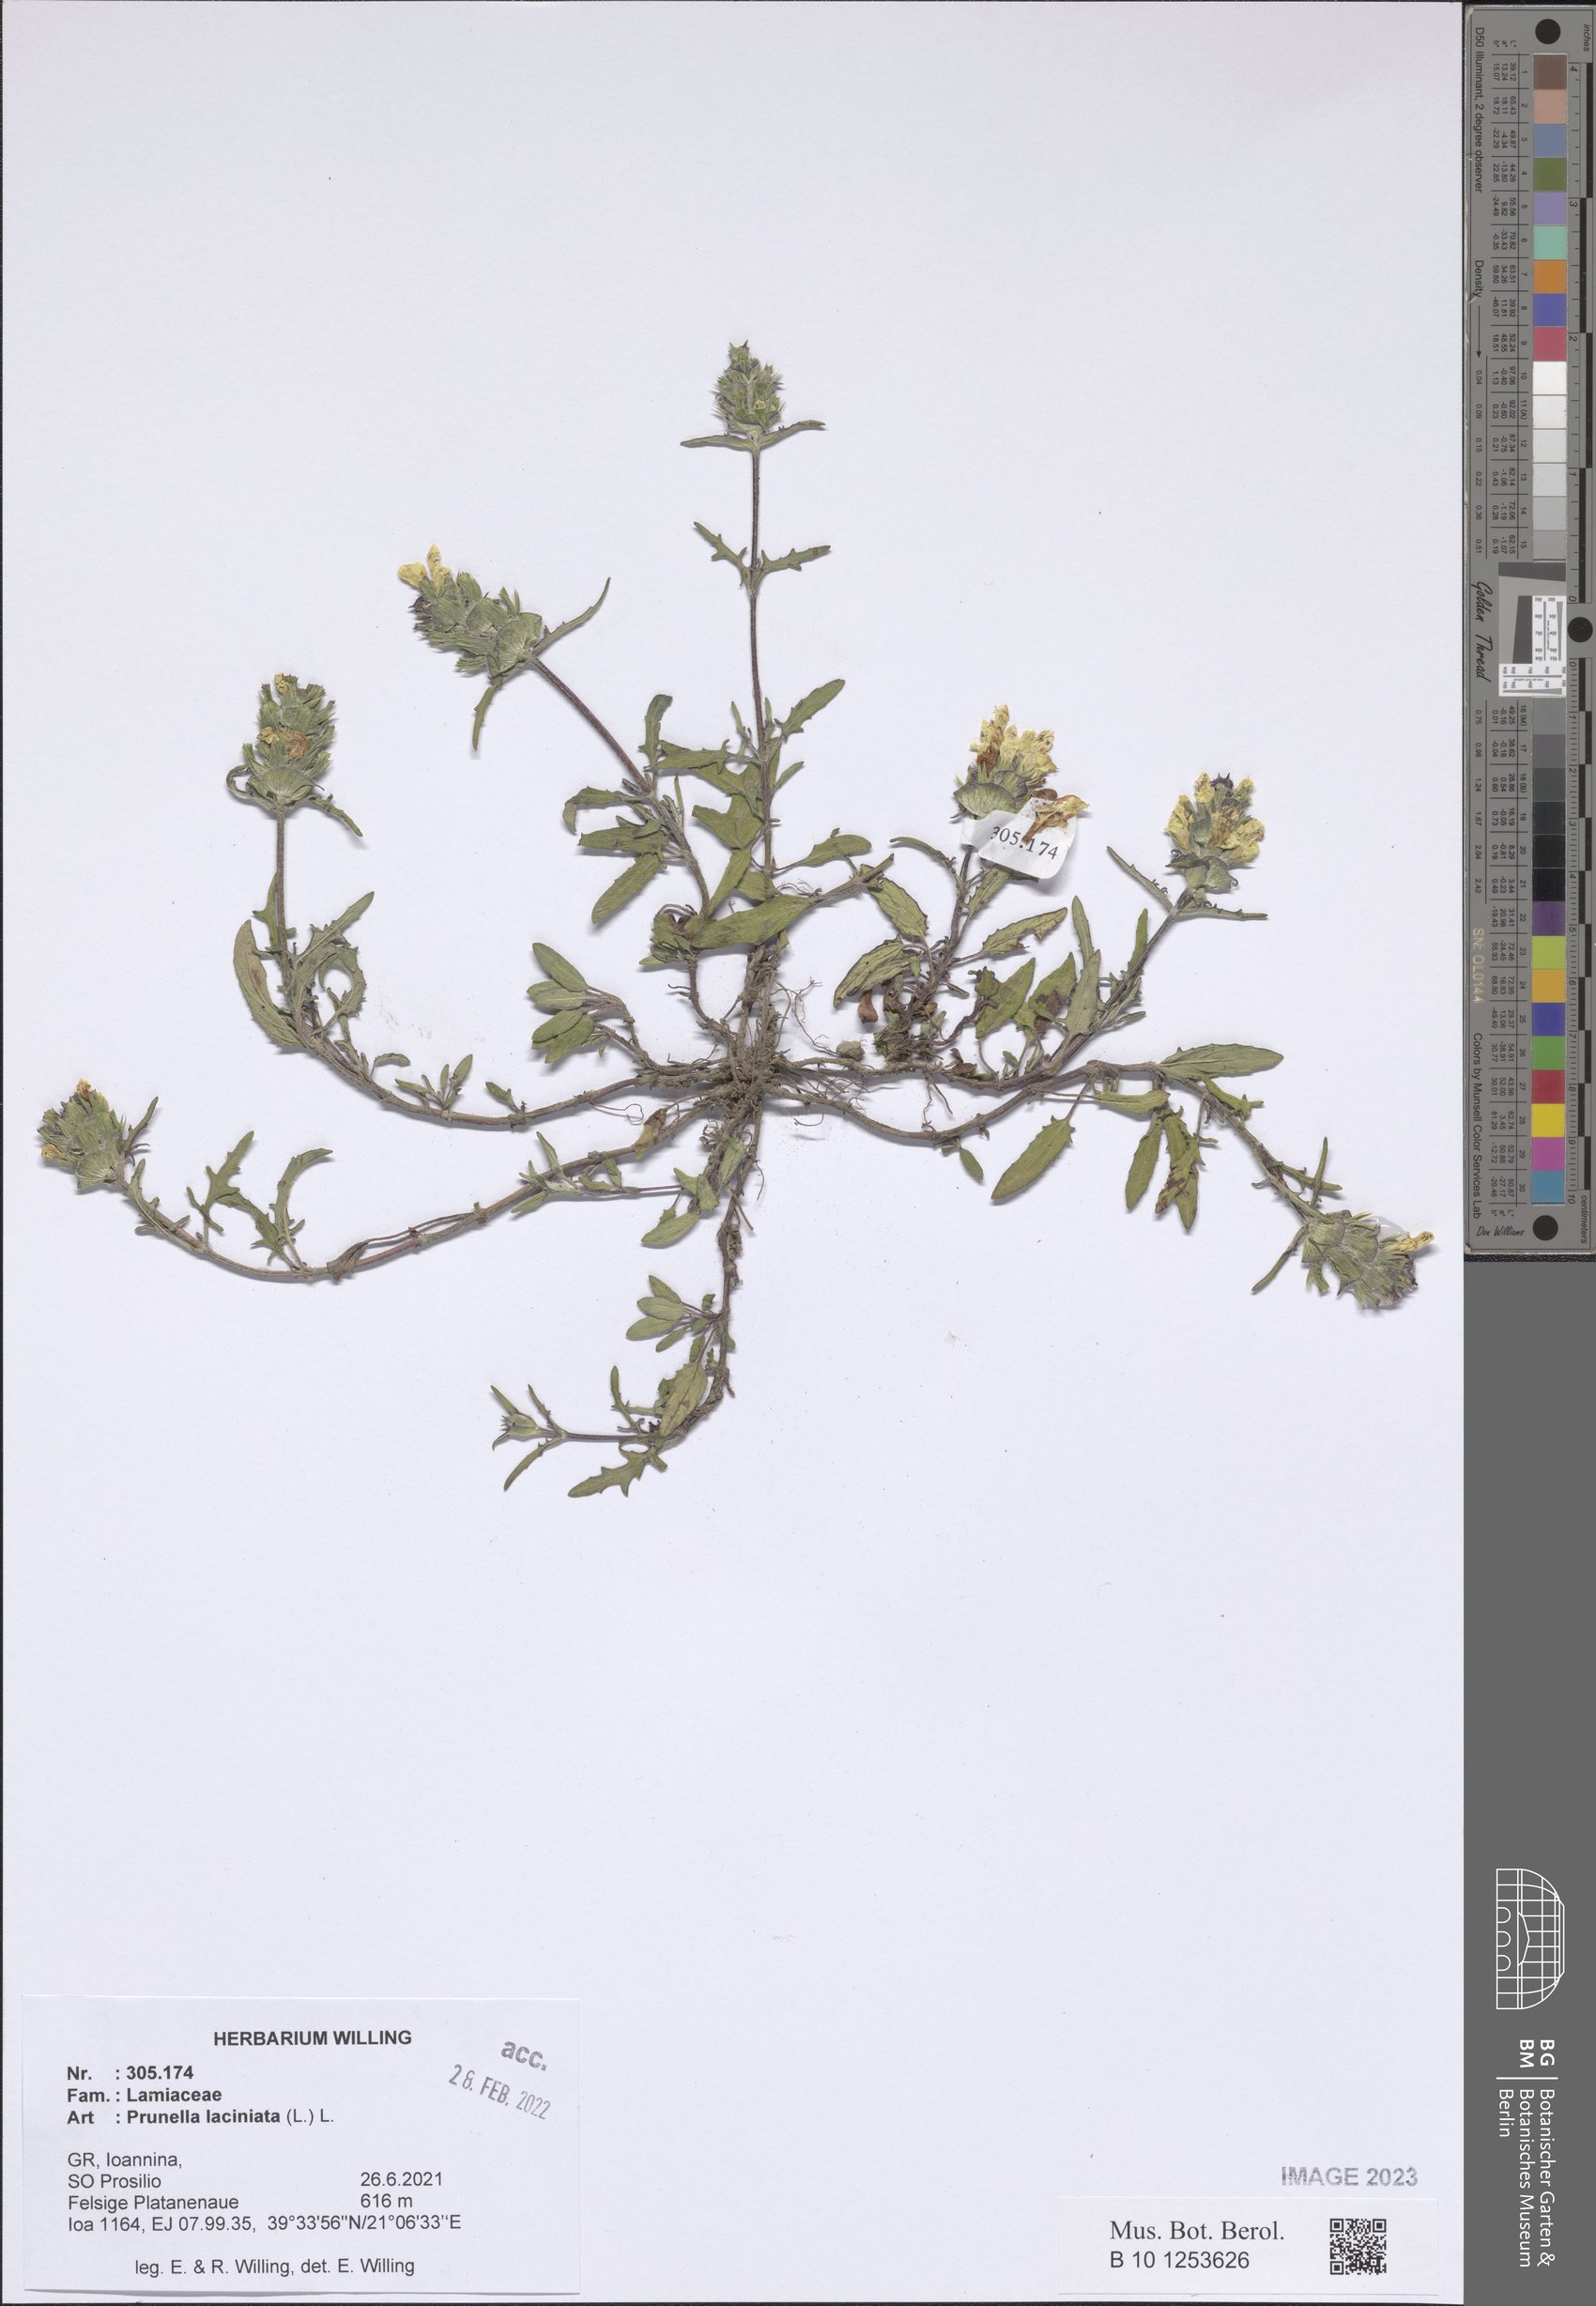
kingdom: Plantae
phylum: Tracheophyta
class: Magnoliopsida
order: Lamiales
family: Lamiaceae
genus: Prunella
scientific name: Prunella laciniata
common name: Cut-leaved selfheal
